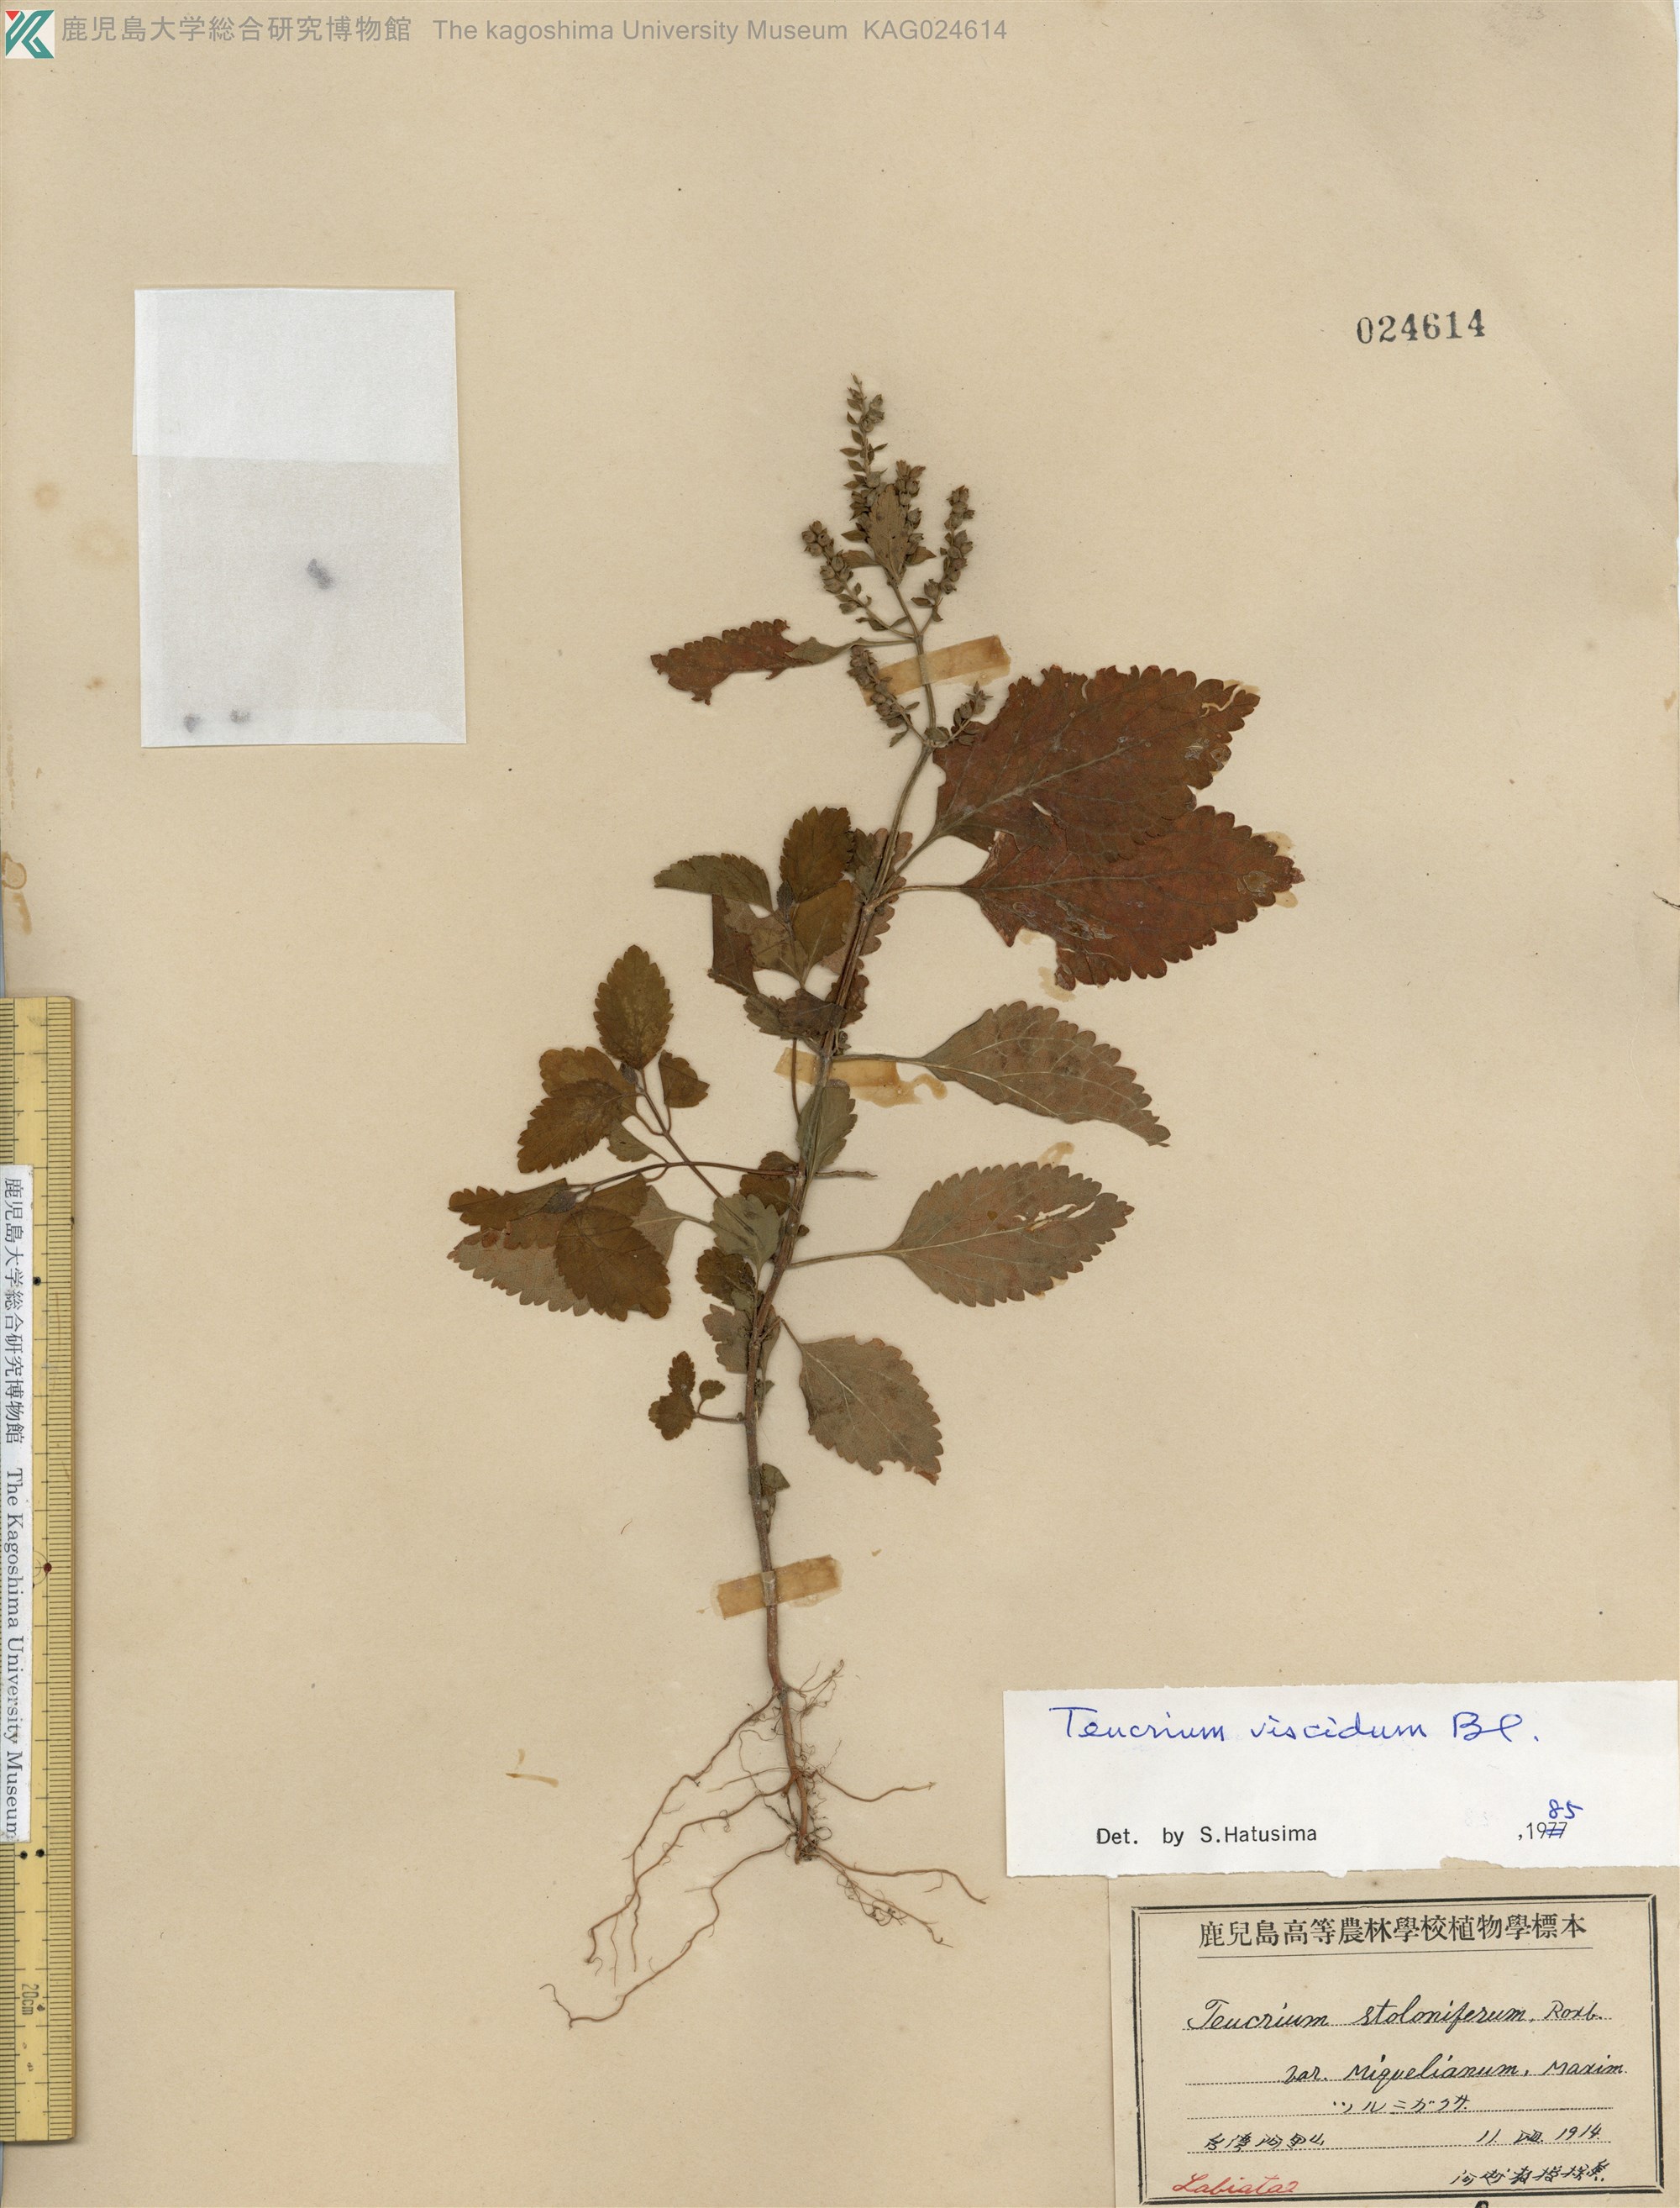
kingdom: Plantae
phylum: Tracheophyta
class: Magnoliopsida
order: Lamiales
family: Lamiaceae
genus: Teucrium
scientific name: Teucrium viscidum
